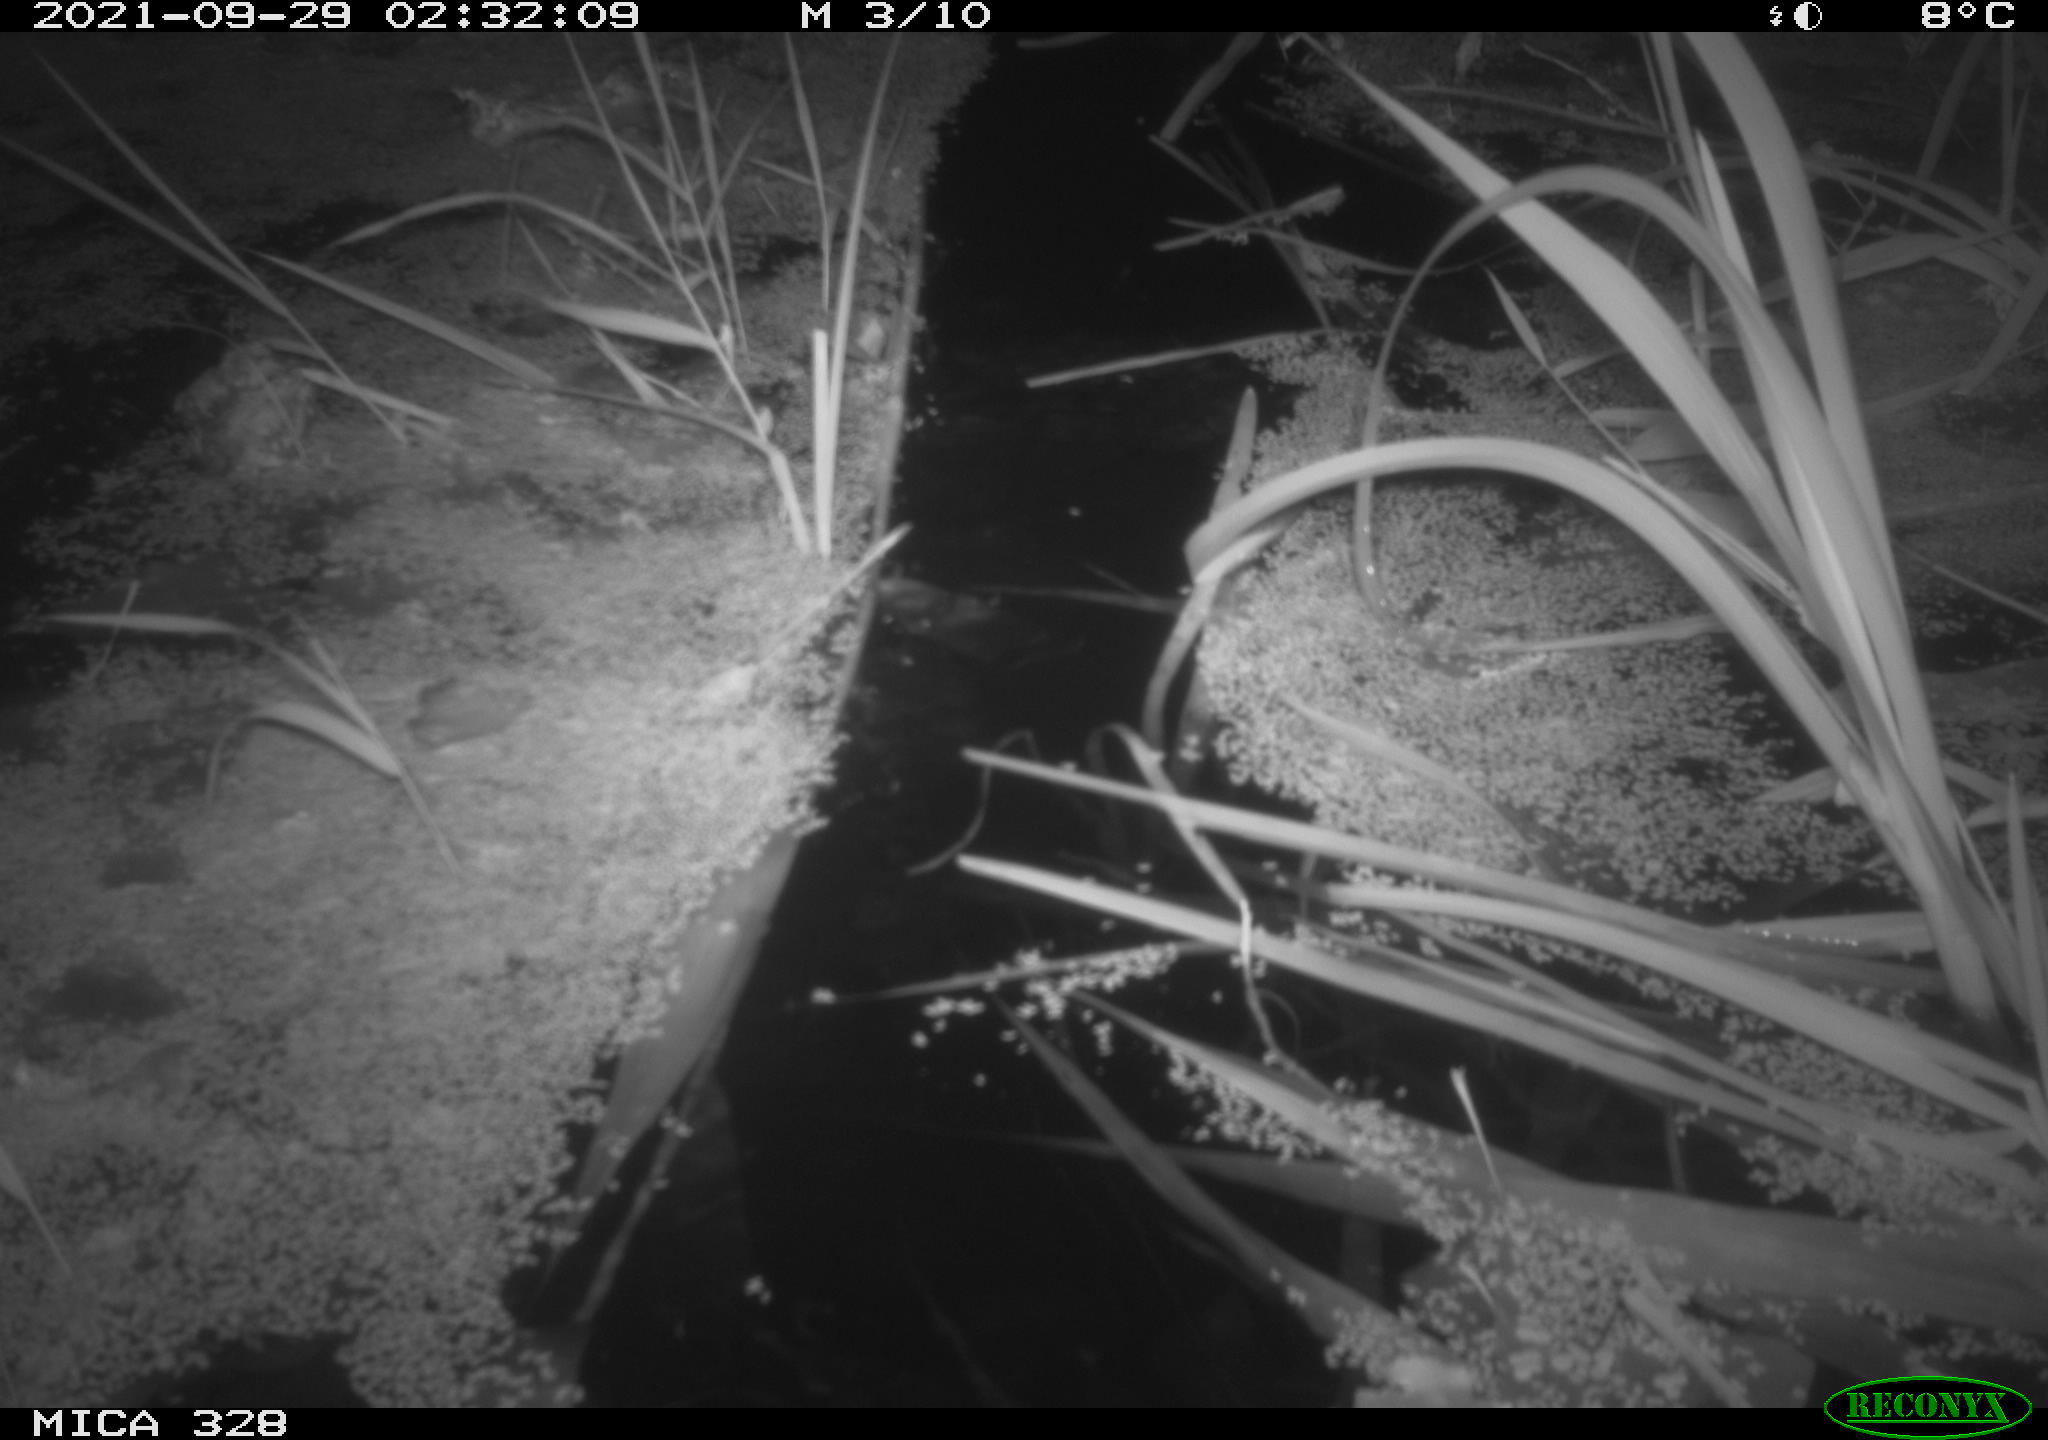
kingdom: Animalia
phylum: Chordata
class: Mammalia
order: Rodentia
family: Cricetidae
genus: Ondatra
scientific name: Ondatra zibethicus
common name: Muskrat
